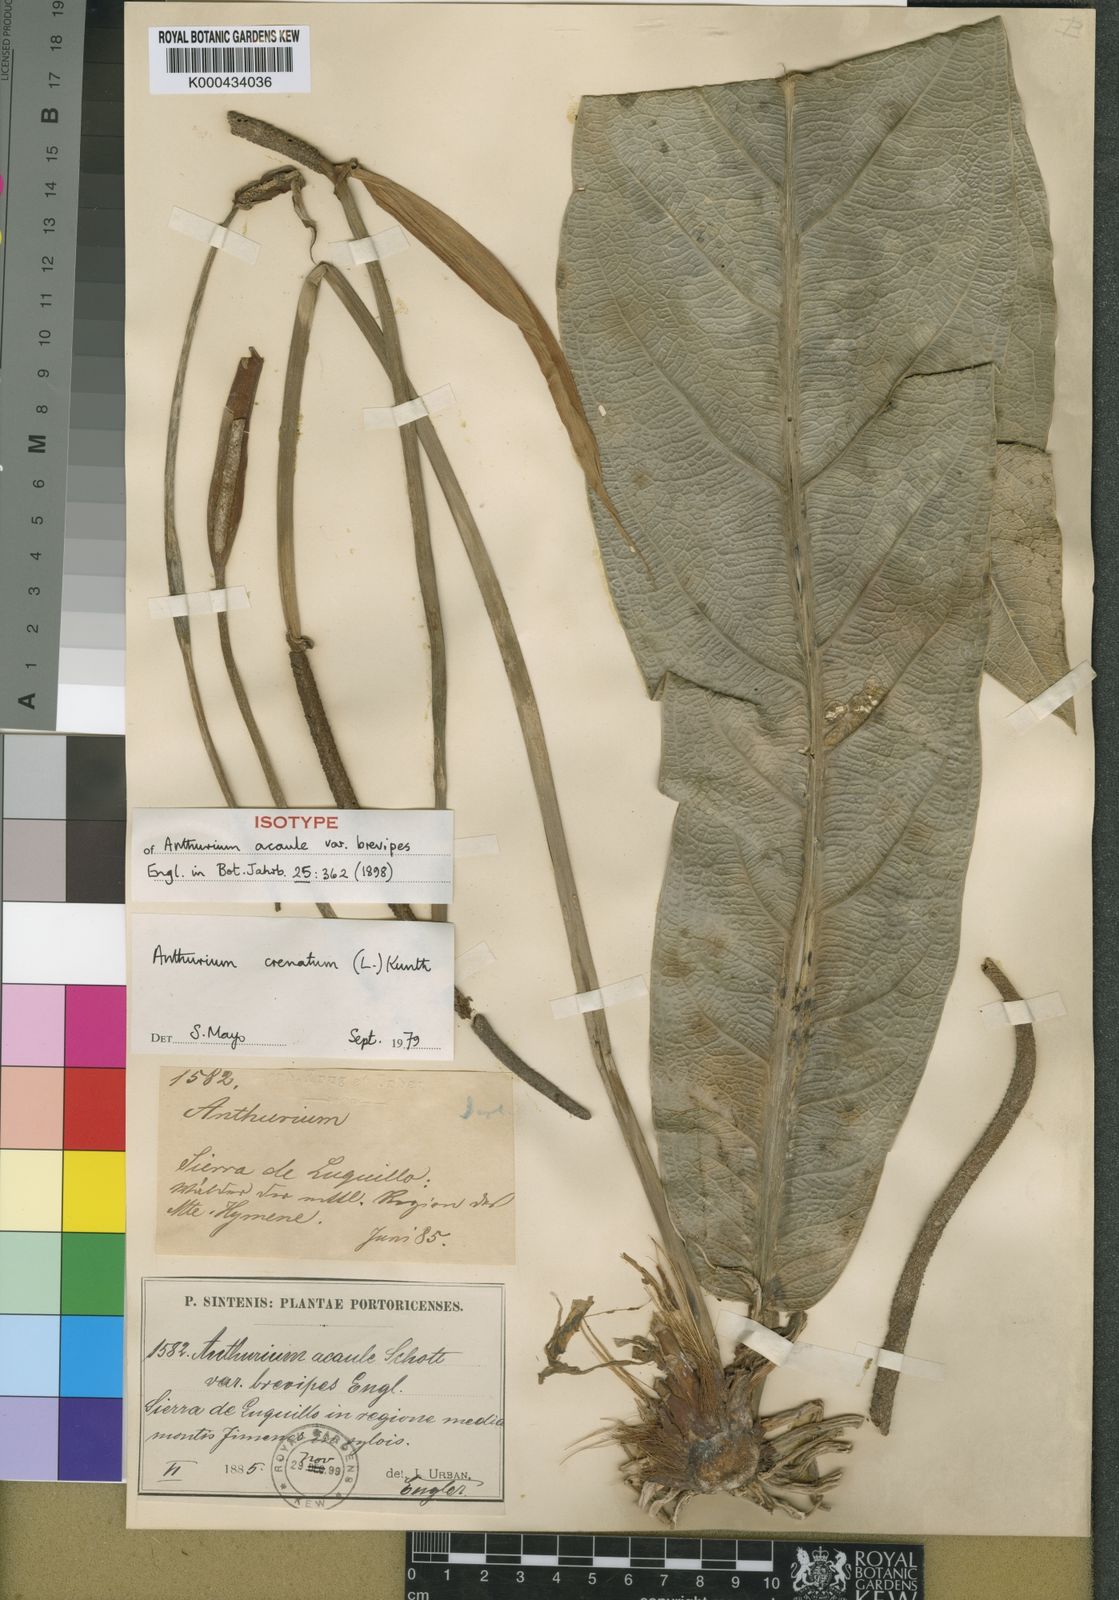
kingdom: Plantae
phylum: Tracheophyta
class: Liliopsida
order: Alismatales
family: Araceae
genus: Anthurium
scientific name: Anthurium crenatum
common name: Scalloped laceleaf
